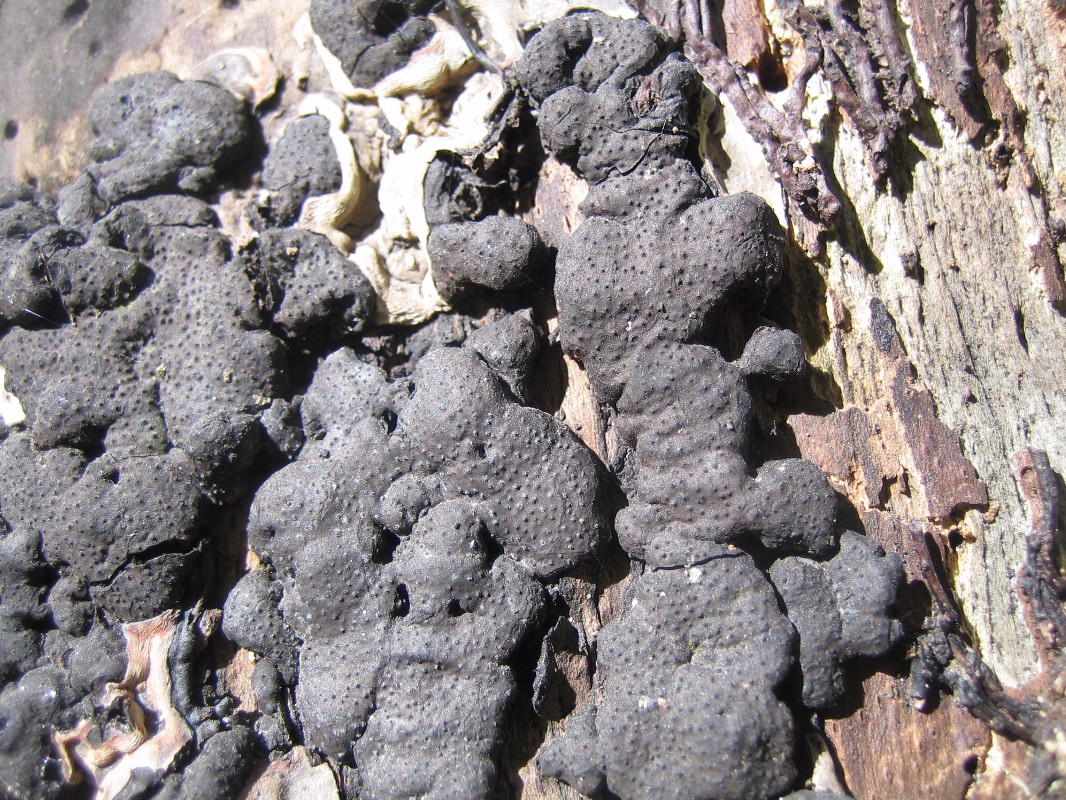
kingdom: Fungi
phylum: Ascomycota
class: Sordariomycetes
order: Xylariales
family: Xylariaceae
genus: Kretzschmaria
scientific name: Kretzschmaria deusta
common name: stor kulsvamp
